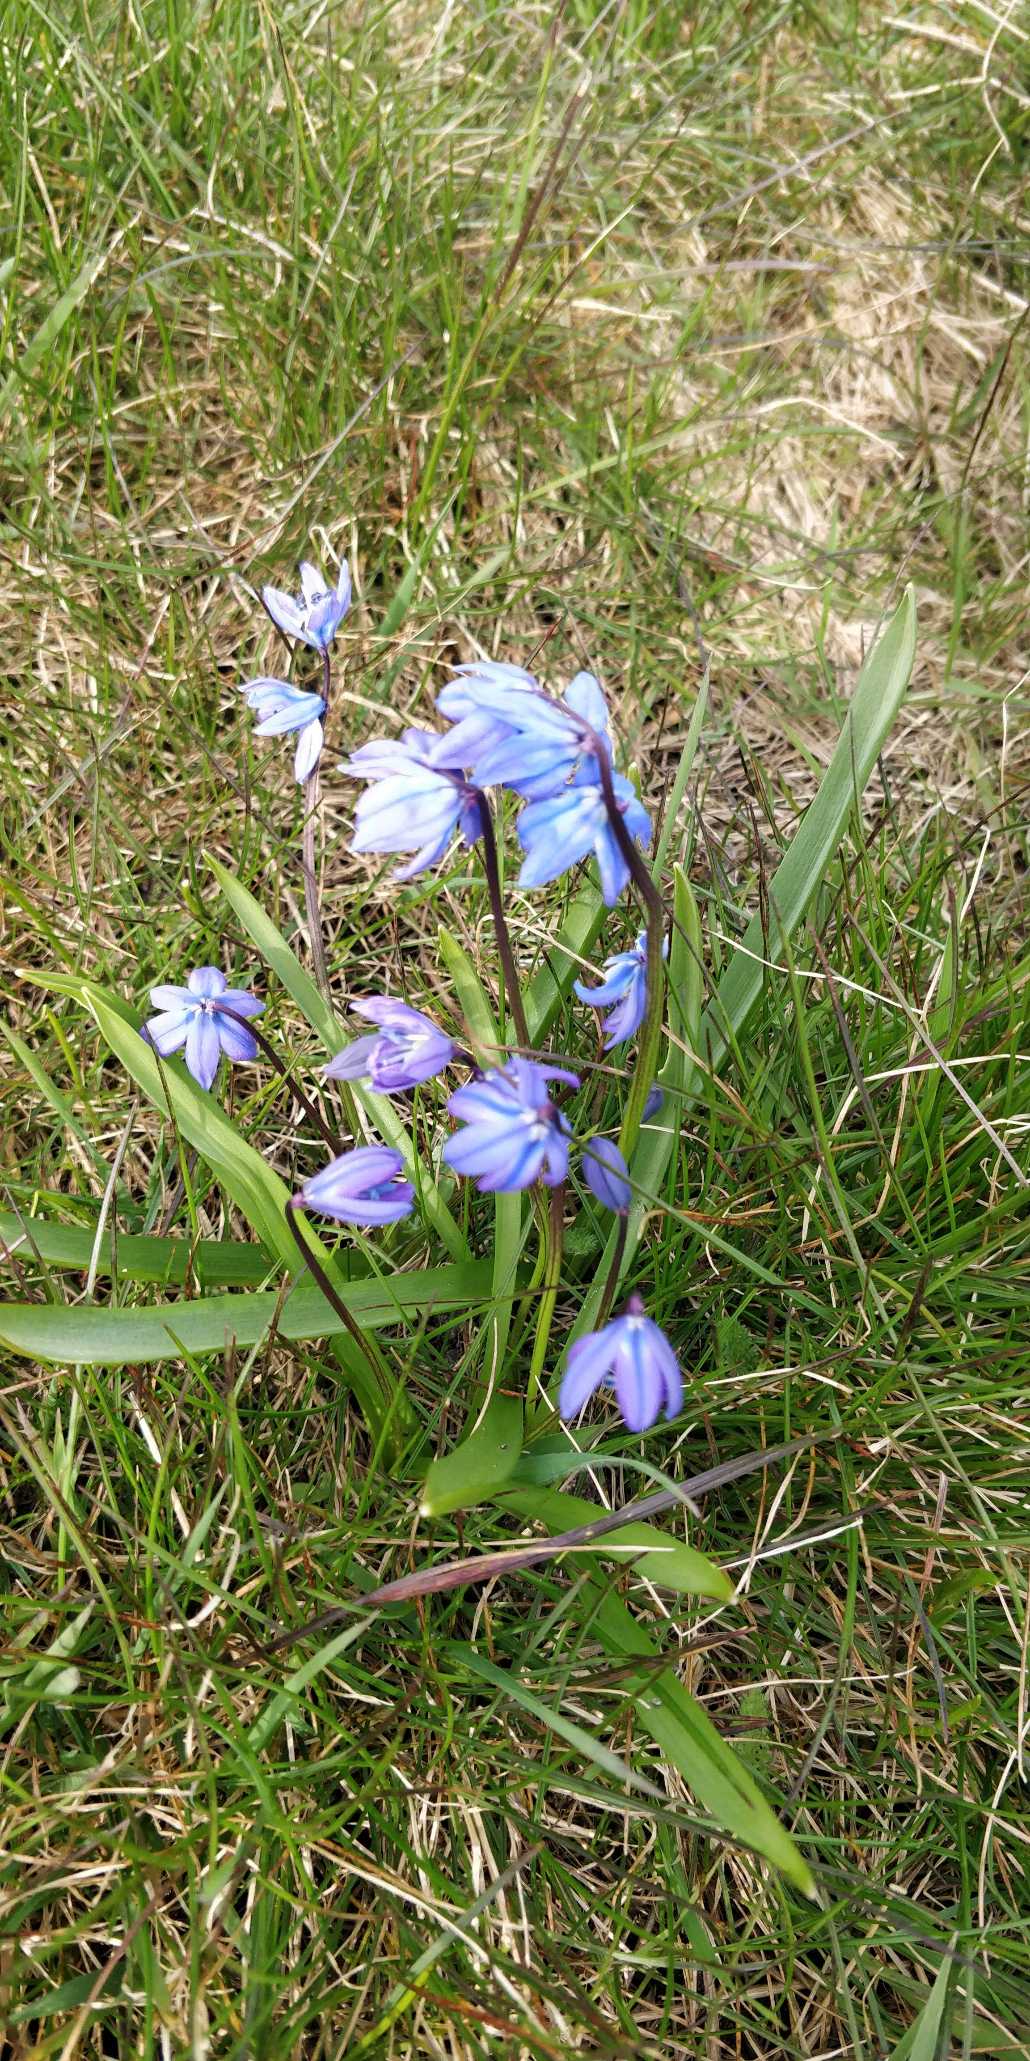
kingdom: Plantae
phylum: Tracheophyta
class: Liliopsida
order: Asparagales
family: Asparagaceae
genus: Scilla
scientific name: Scilla siberica
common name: Russisk skilla
